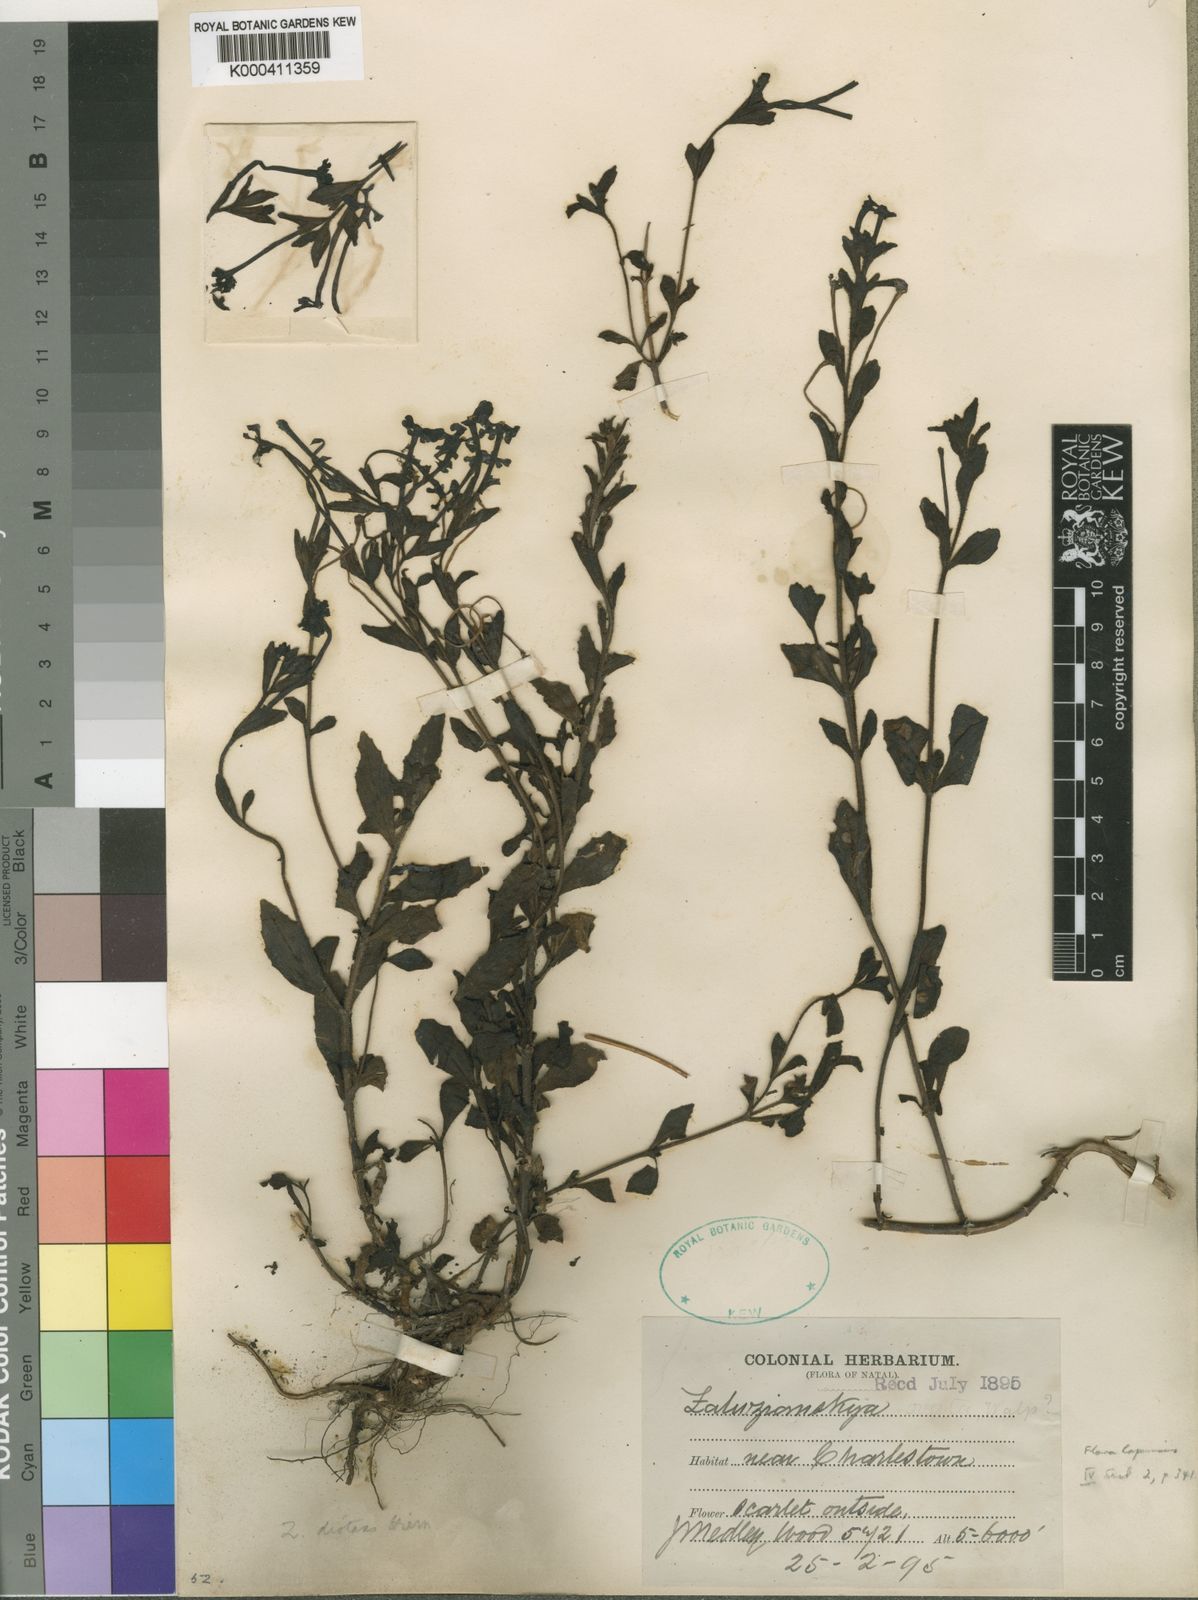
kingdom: Plantae
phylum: Tracheophyta
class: Magnoliopsida
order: Lamiales
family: Scrophulariaceae
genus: Zaluzianskya
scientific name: Zaluzianskya distans
